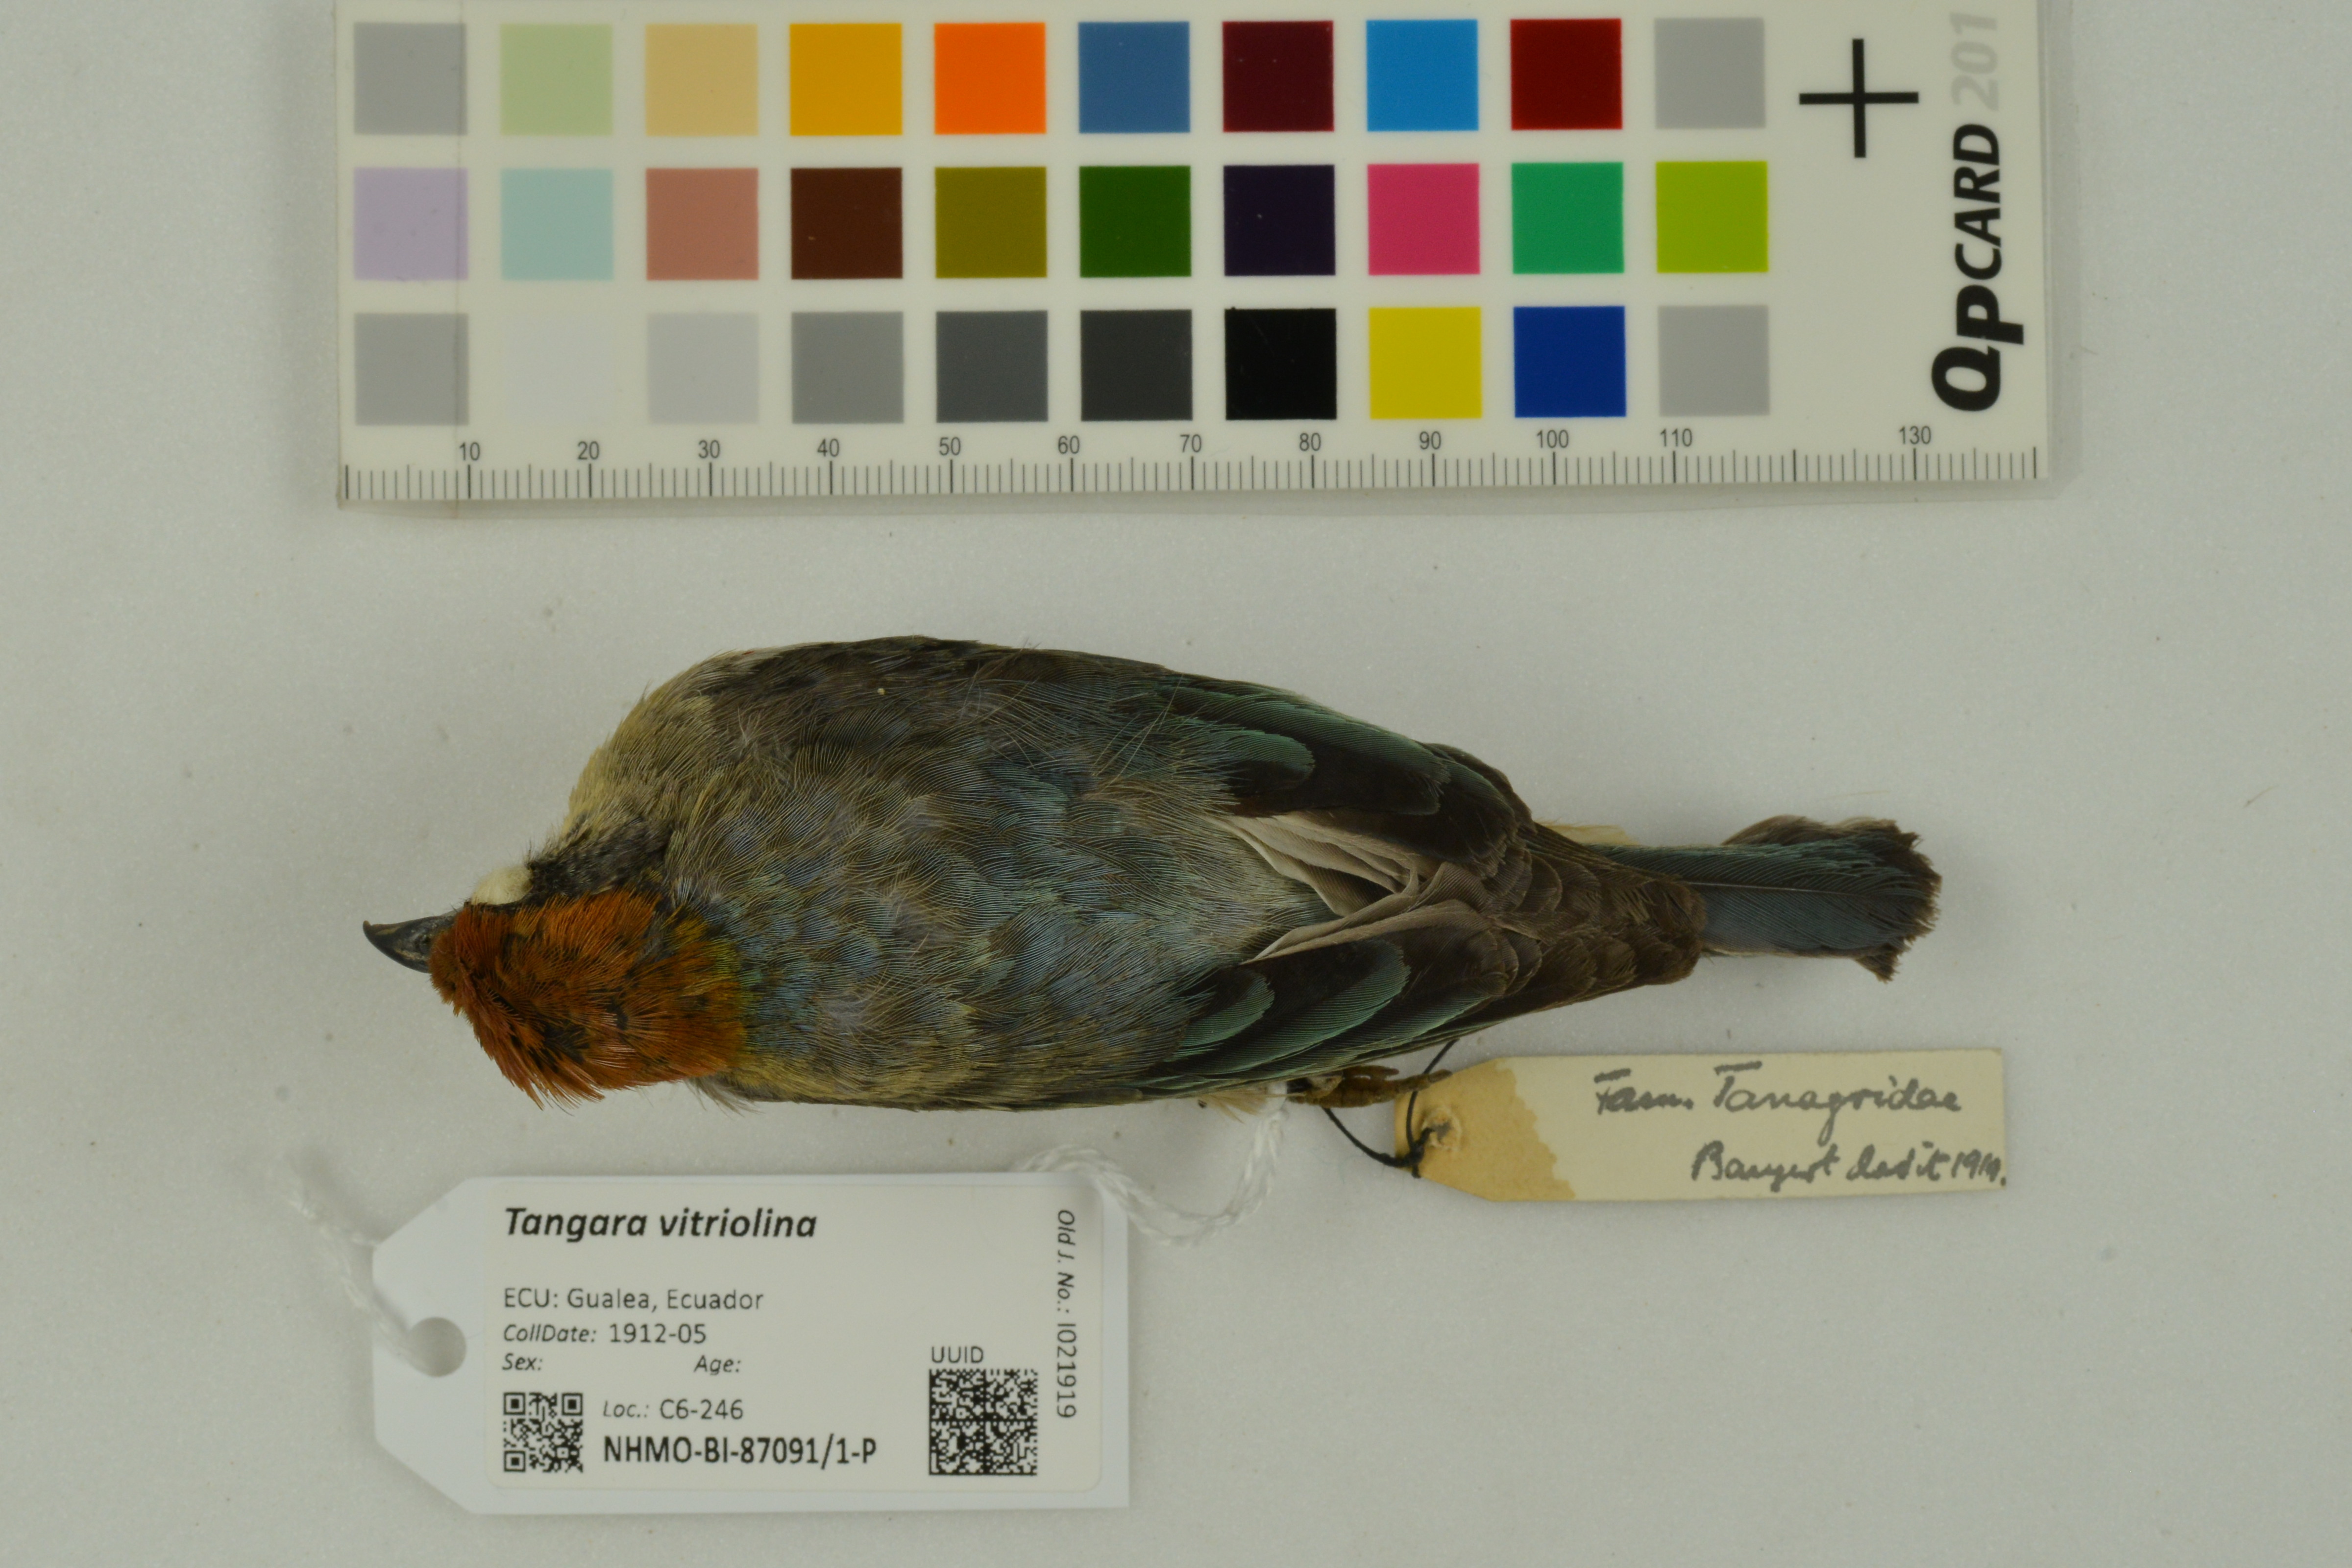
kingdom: Animalia
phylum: Chordata
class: Aves
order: Passeriformes
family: Thraupidae
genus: Stilpnia
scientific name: Stilpnia vitriolina
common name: Scrub tanager
